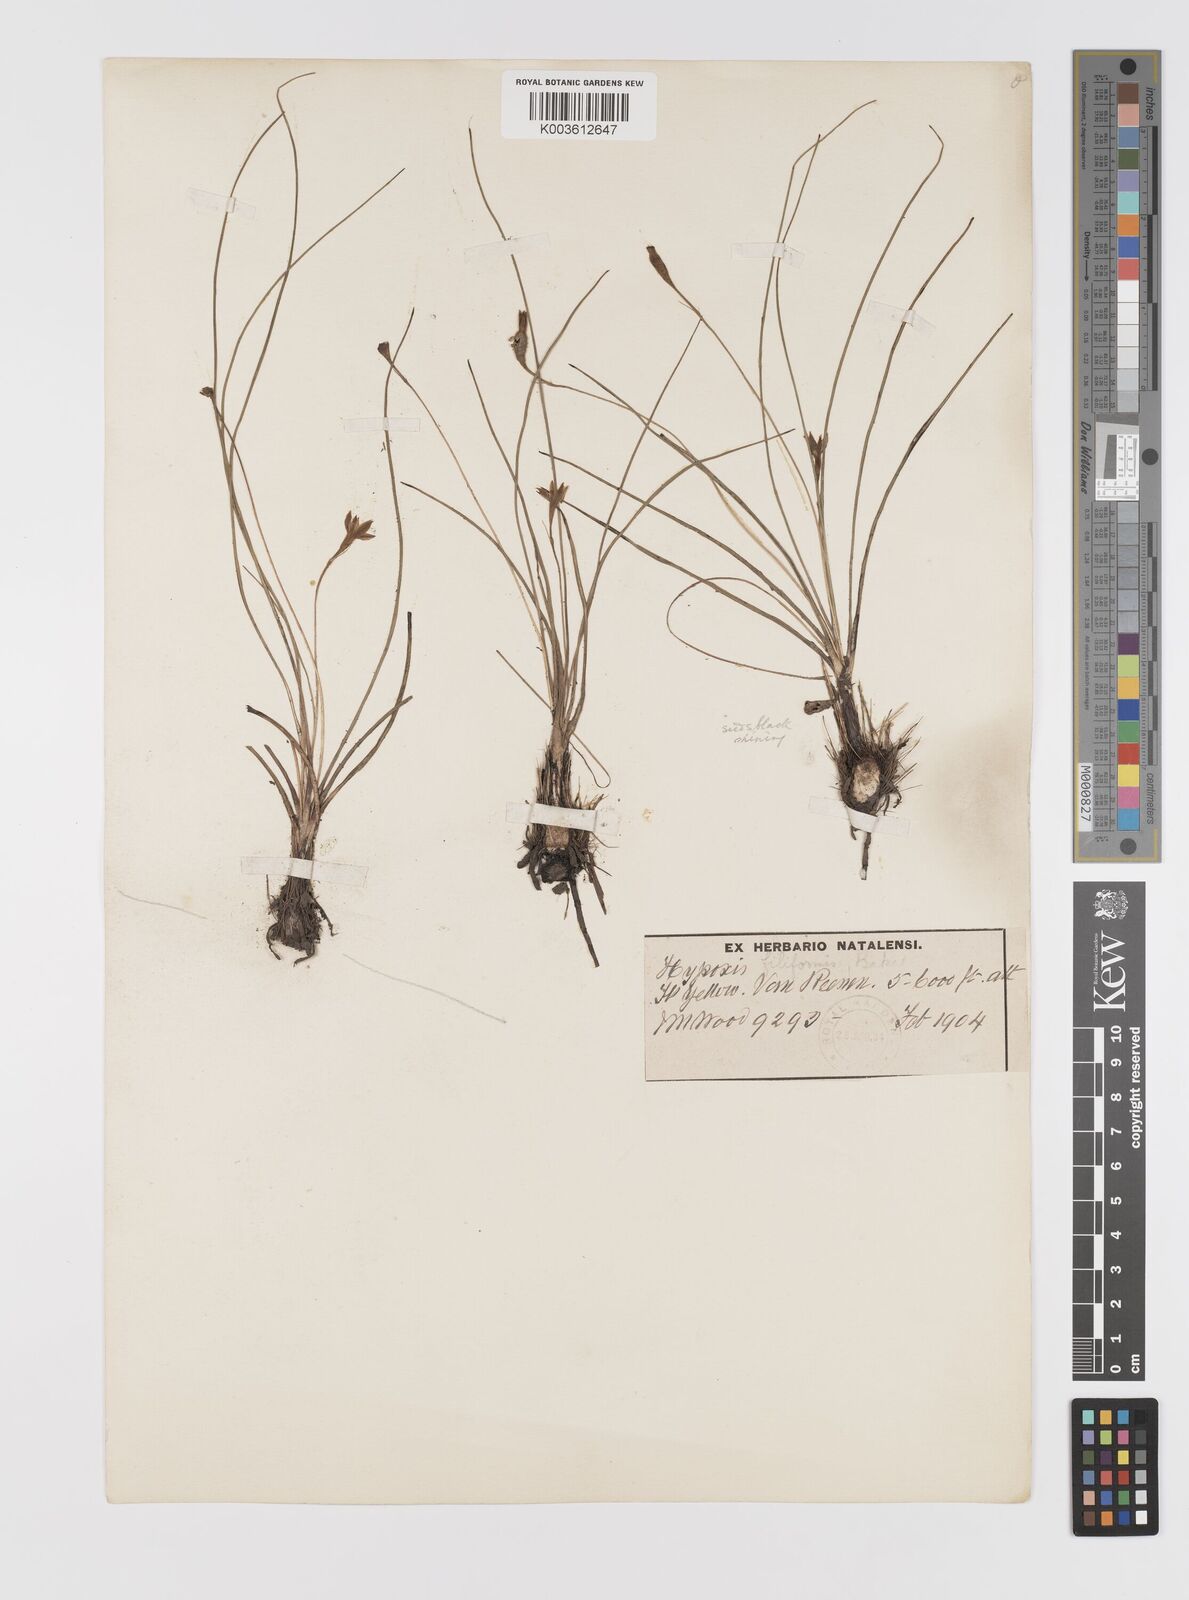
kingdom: Plantae
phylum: Tracheophyta
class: Liliopsida
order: Asparagales
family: Hypoxidaceae
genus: Hypoxis
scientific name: Hypoxis filiformis
